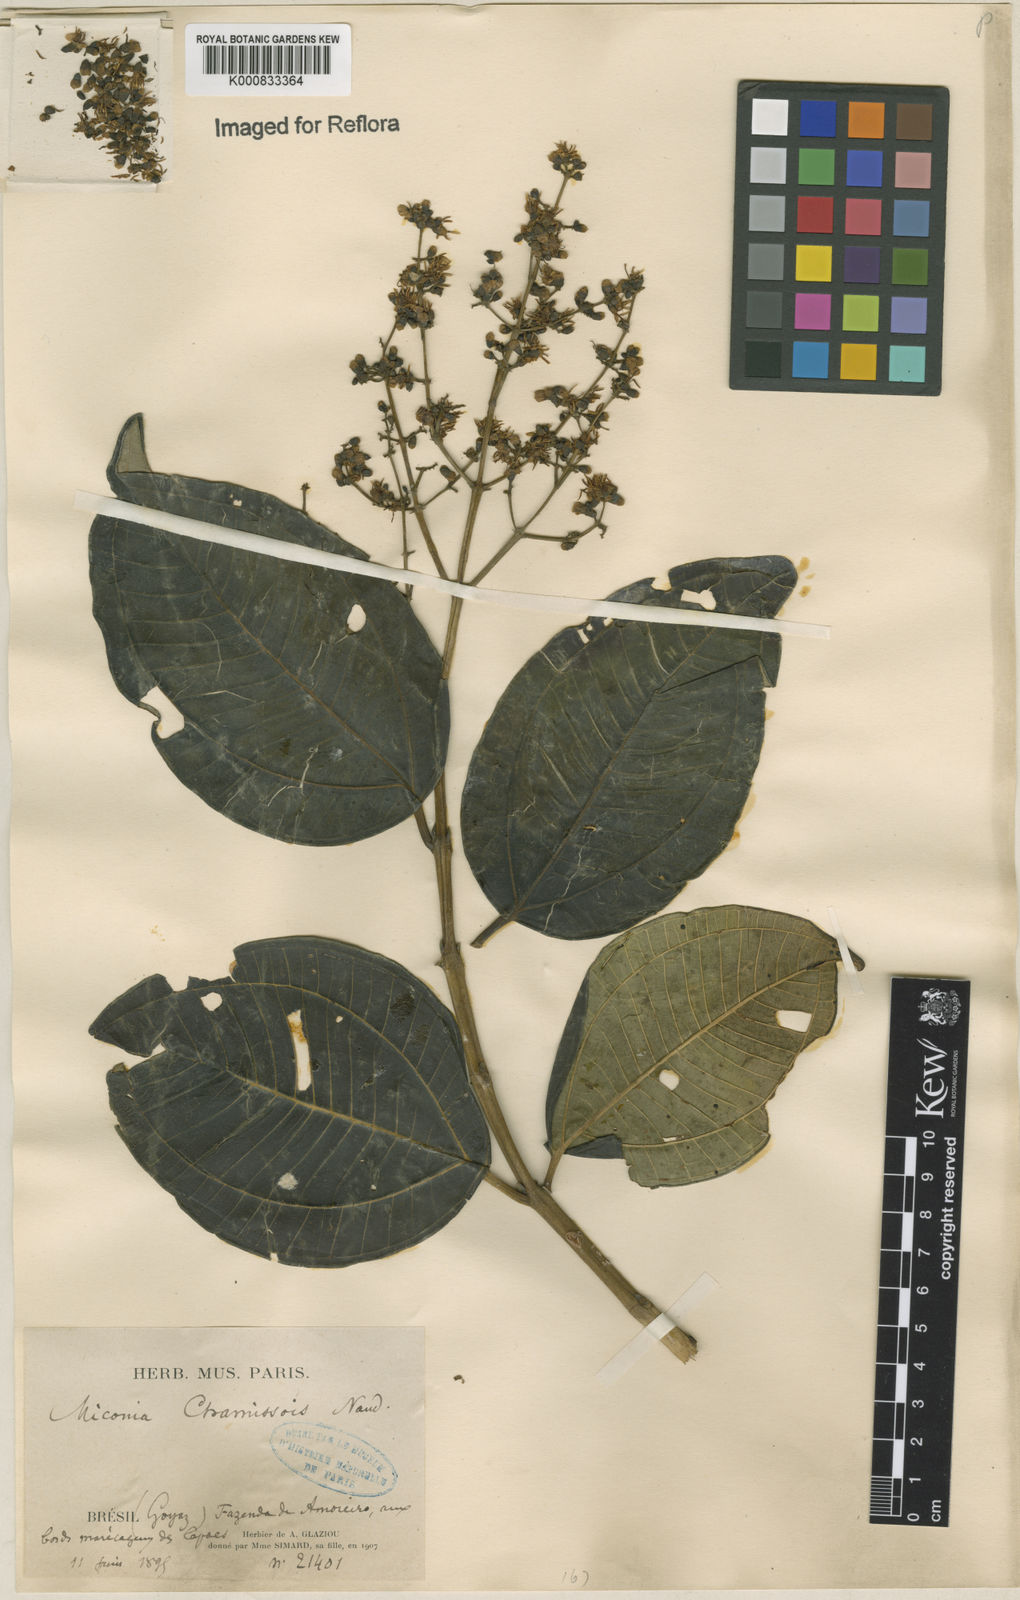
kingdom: Plantae
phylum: Tracheophyta
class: Magnoliopsida
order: Myrtales
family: Melastomataceae
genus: Miconia
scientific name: Miconia chamissois
